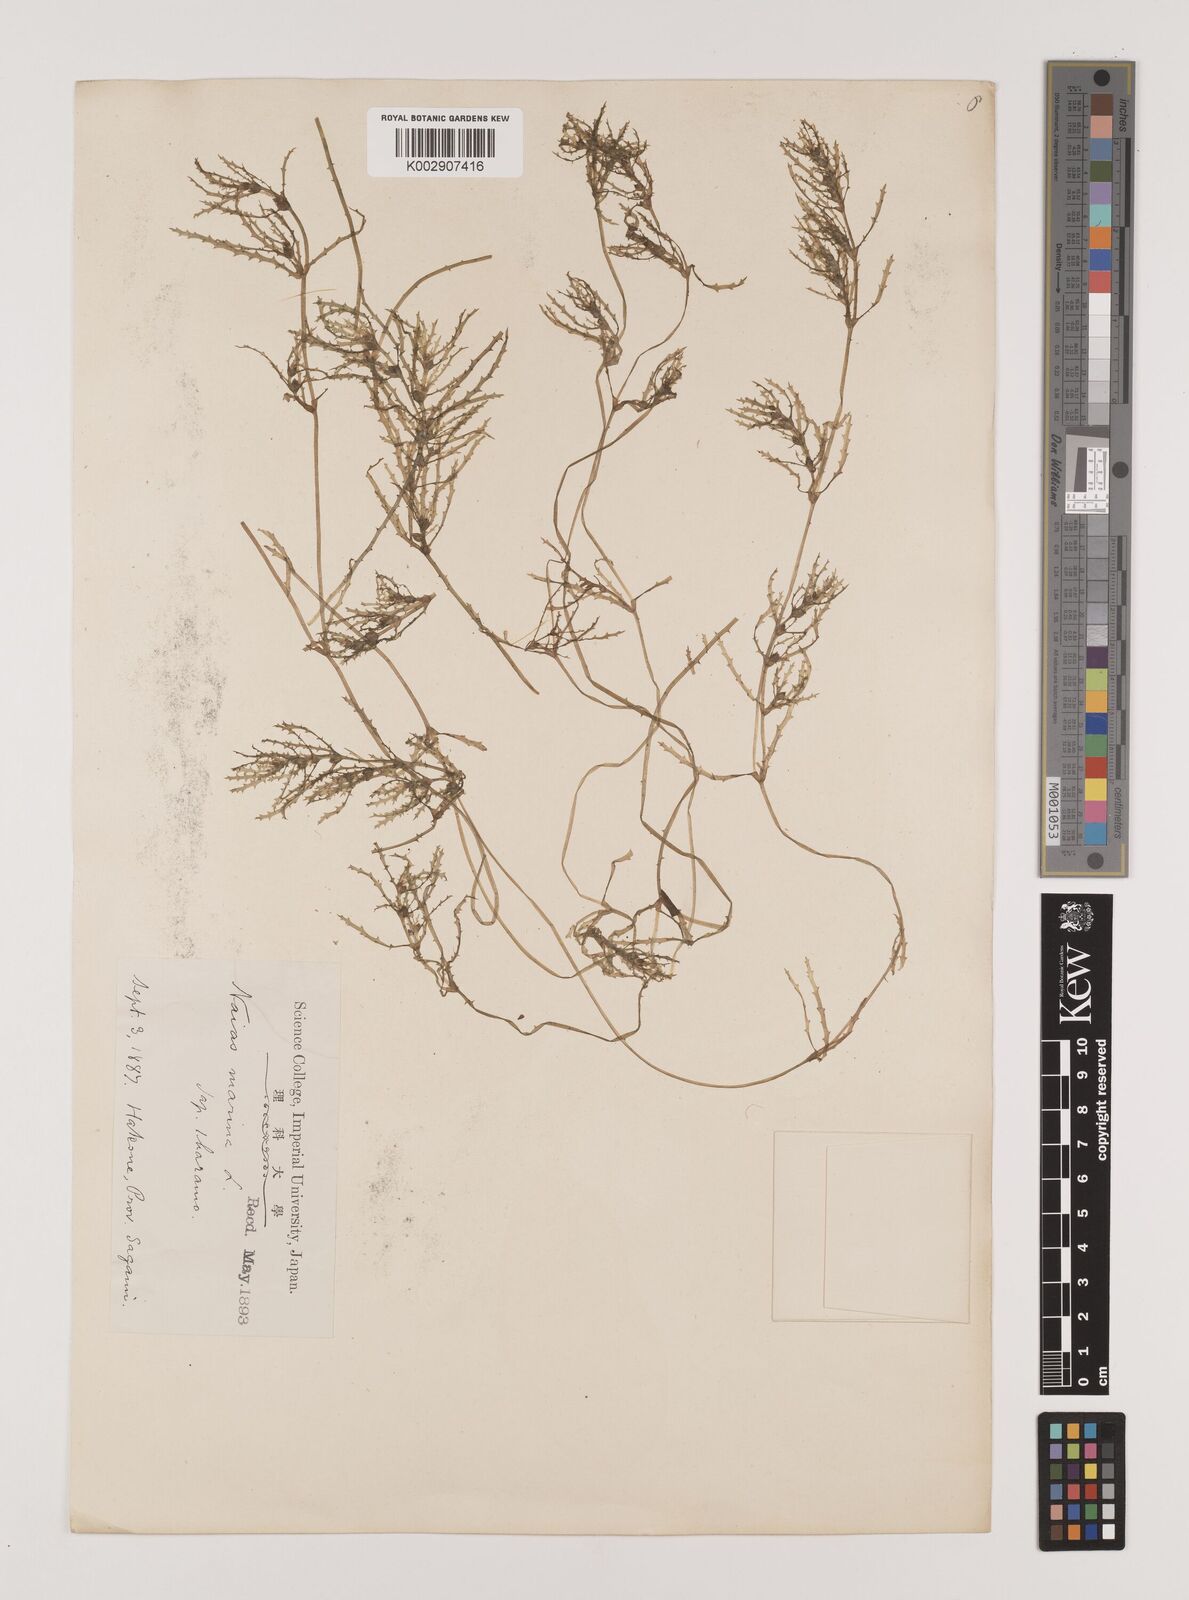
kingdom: Plantae
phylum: Tracheophyta
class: Liliopsida
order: Alismatales
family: Hydrocharitaceae
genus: Najas
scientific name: Najas marina
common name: Holly-leaved naiad
